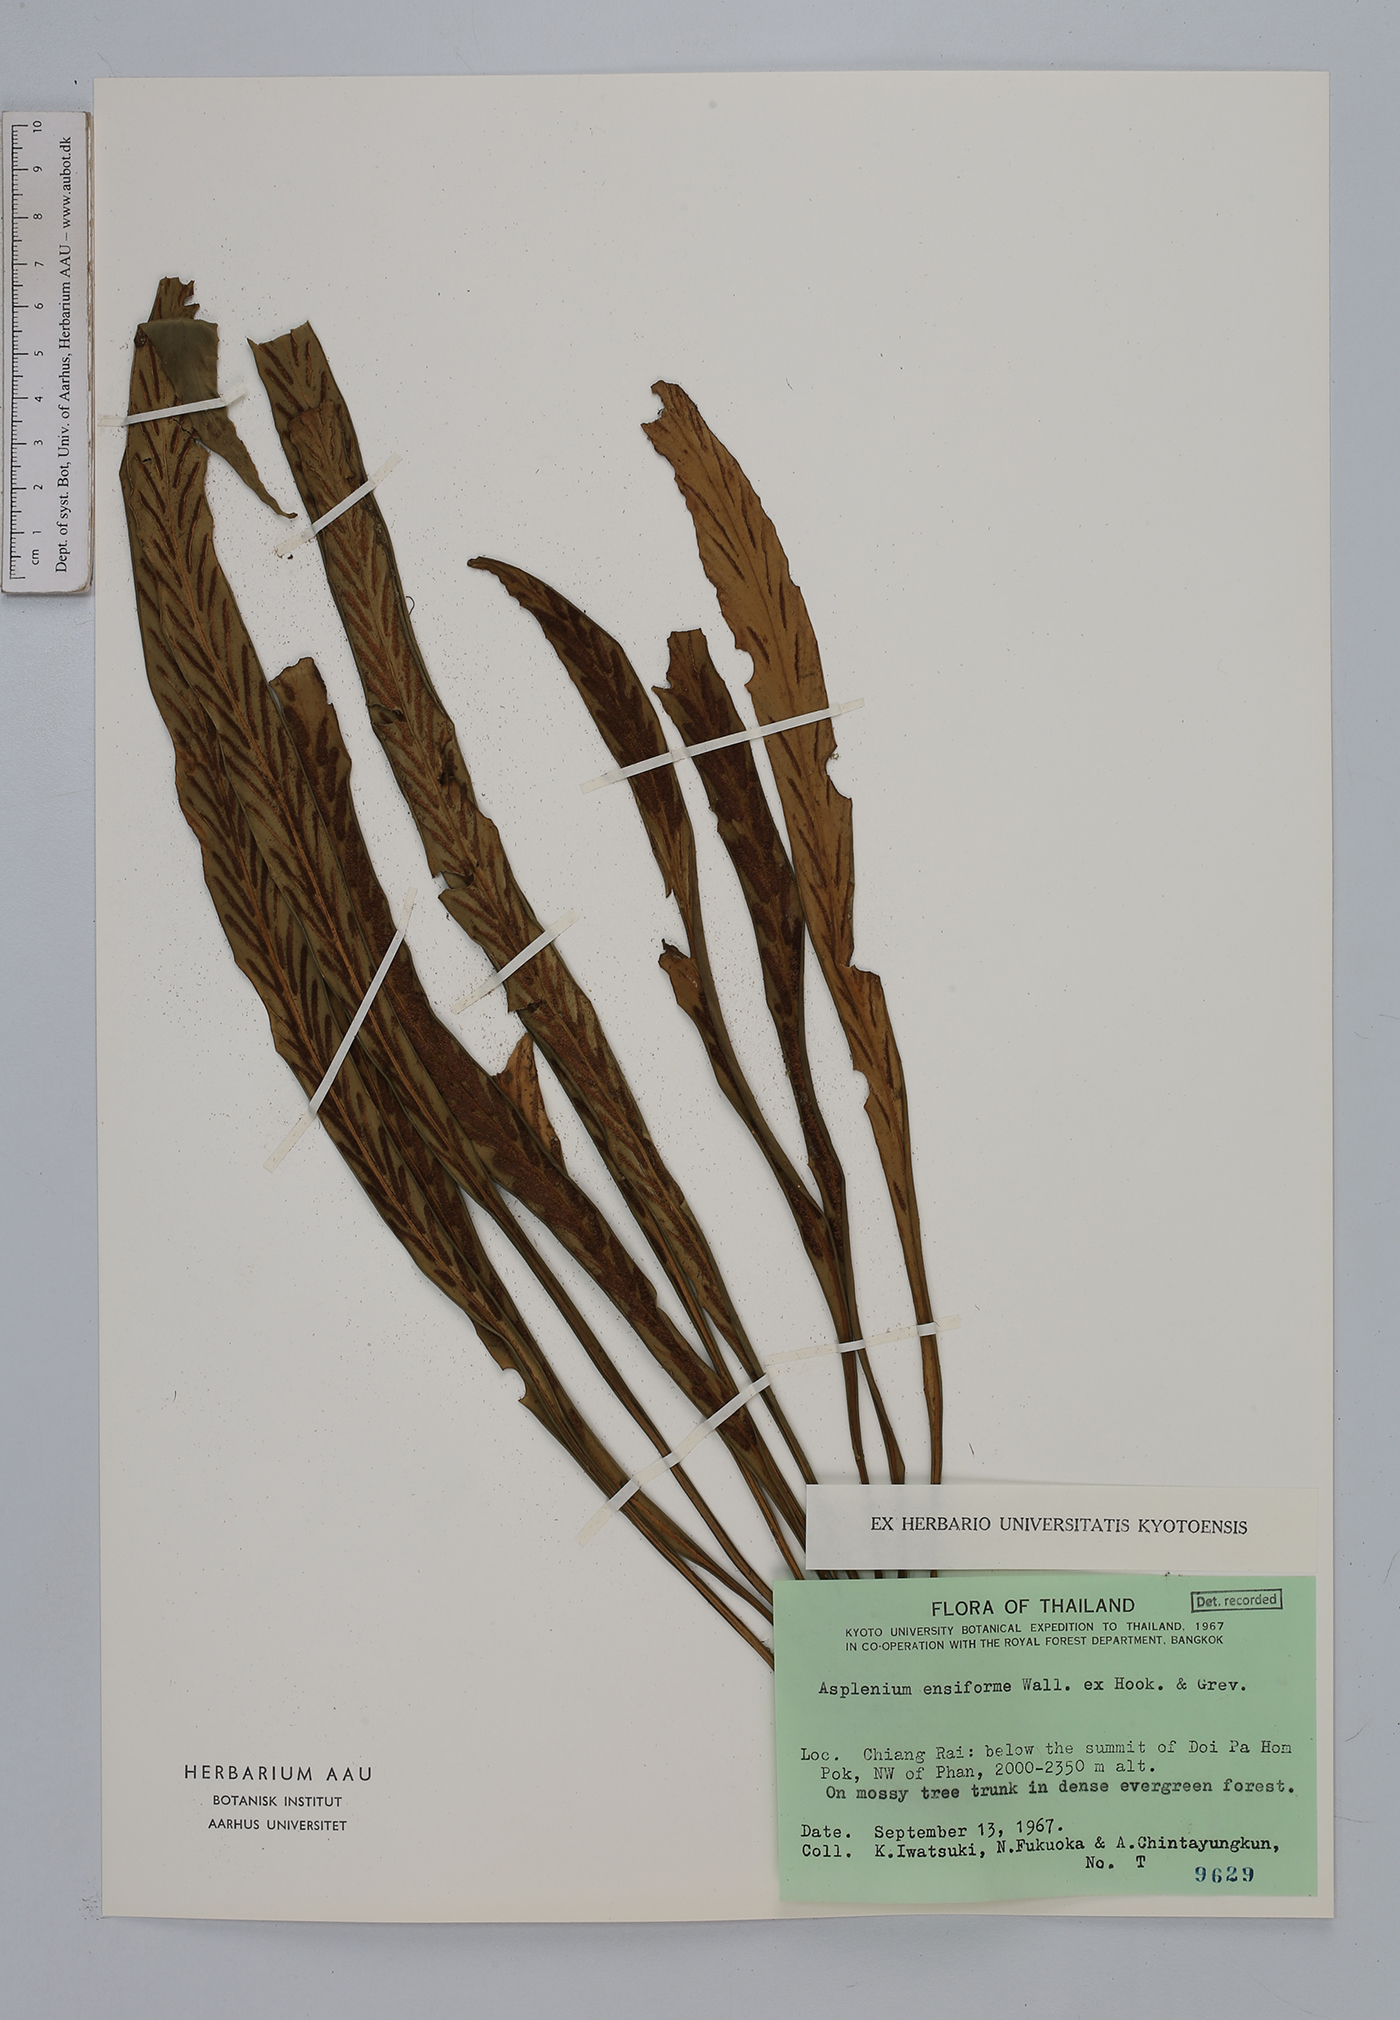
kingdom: Plantae
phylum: Tracheophyta
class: Polypodiopsida
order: Polypodiales
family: Aspleniaceae
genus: Asplenium
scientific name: Asplenium ensiforme
